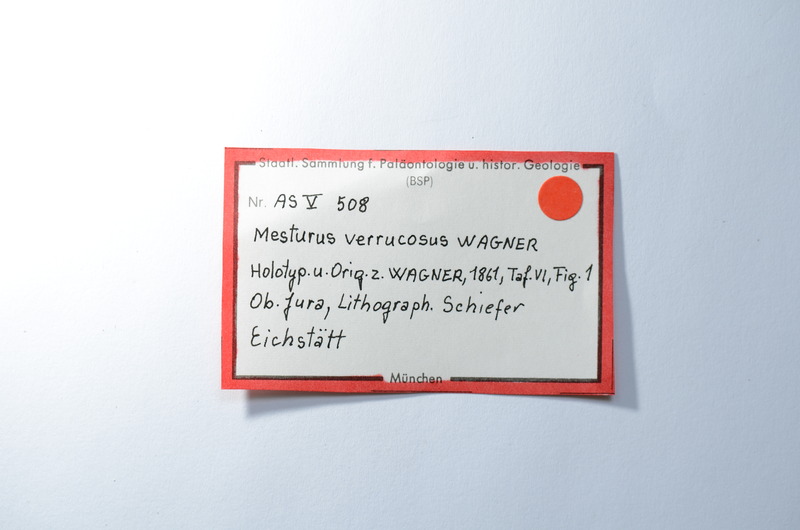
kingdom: Animalia
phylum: Chordata
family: Mesturidae
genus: Mesturus
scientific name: Mesturus verrucosus
